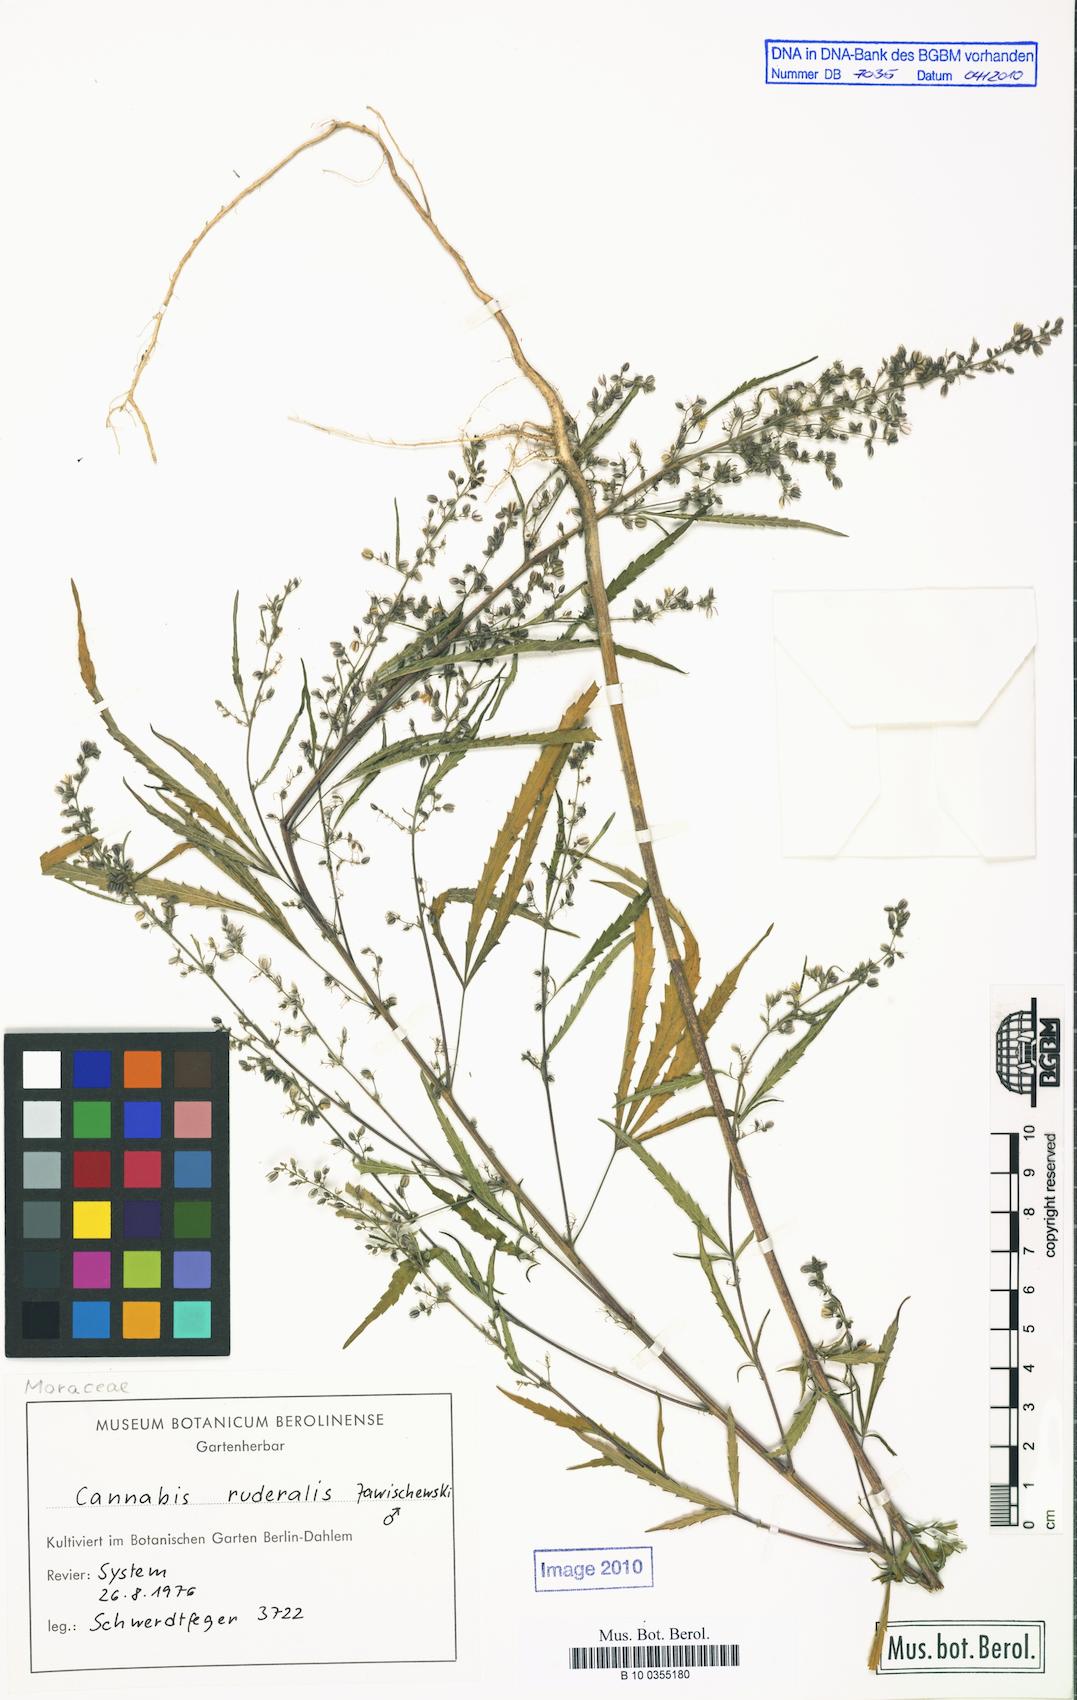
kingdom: Plantae
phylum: Tracheophyta
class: Magnoliopsida
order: Rosales
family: Cannabaceae
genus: Cannabis
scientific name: Cannabis sativa
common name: Hemp
